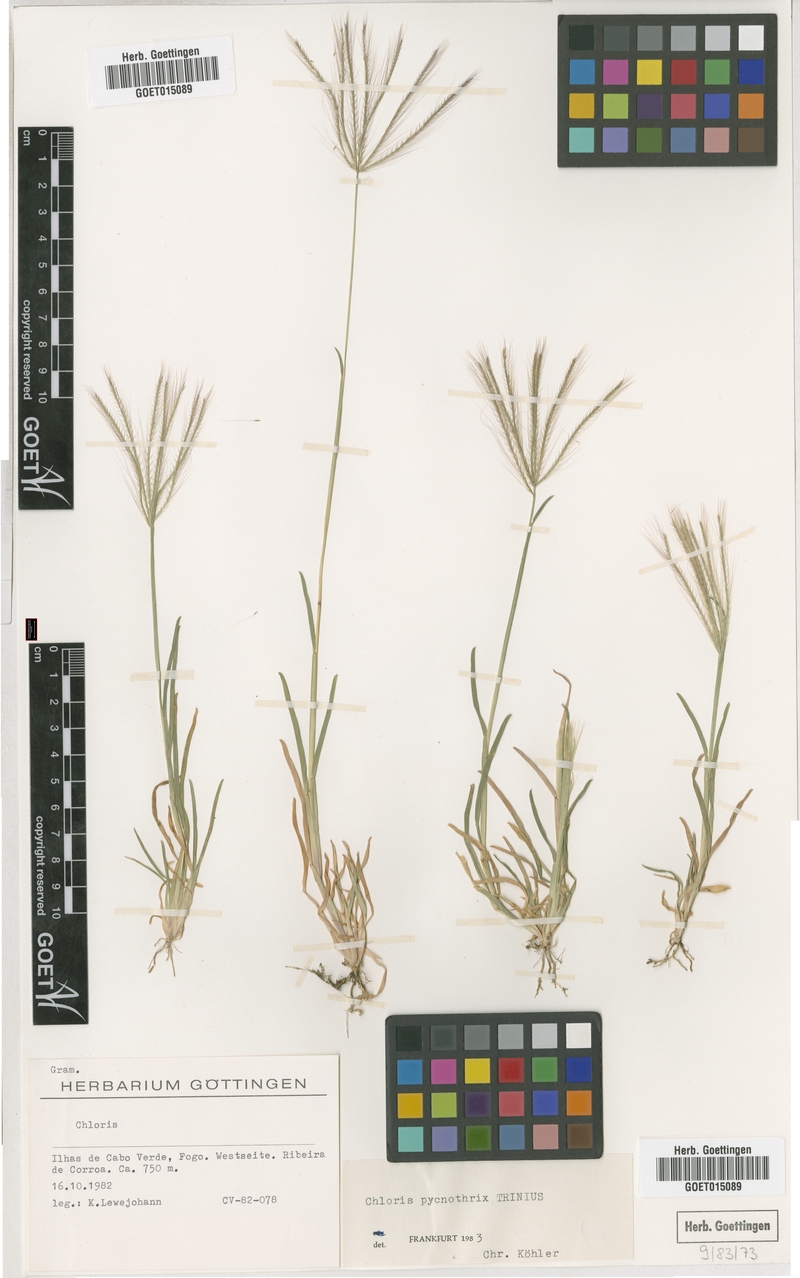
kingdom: Plantae
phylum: Tracheophyta
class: Liliopsida
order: Poales
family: Poaceae
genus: Chloris
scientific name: Chloris pycnothrix
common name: Spiderweb chloris
